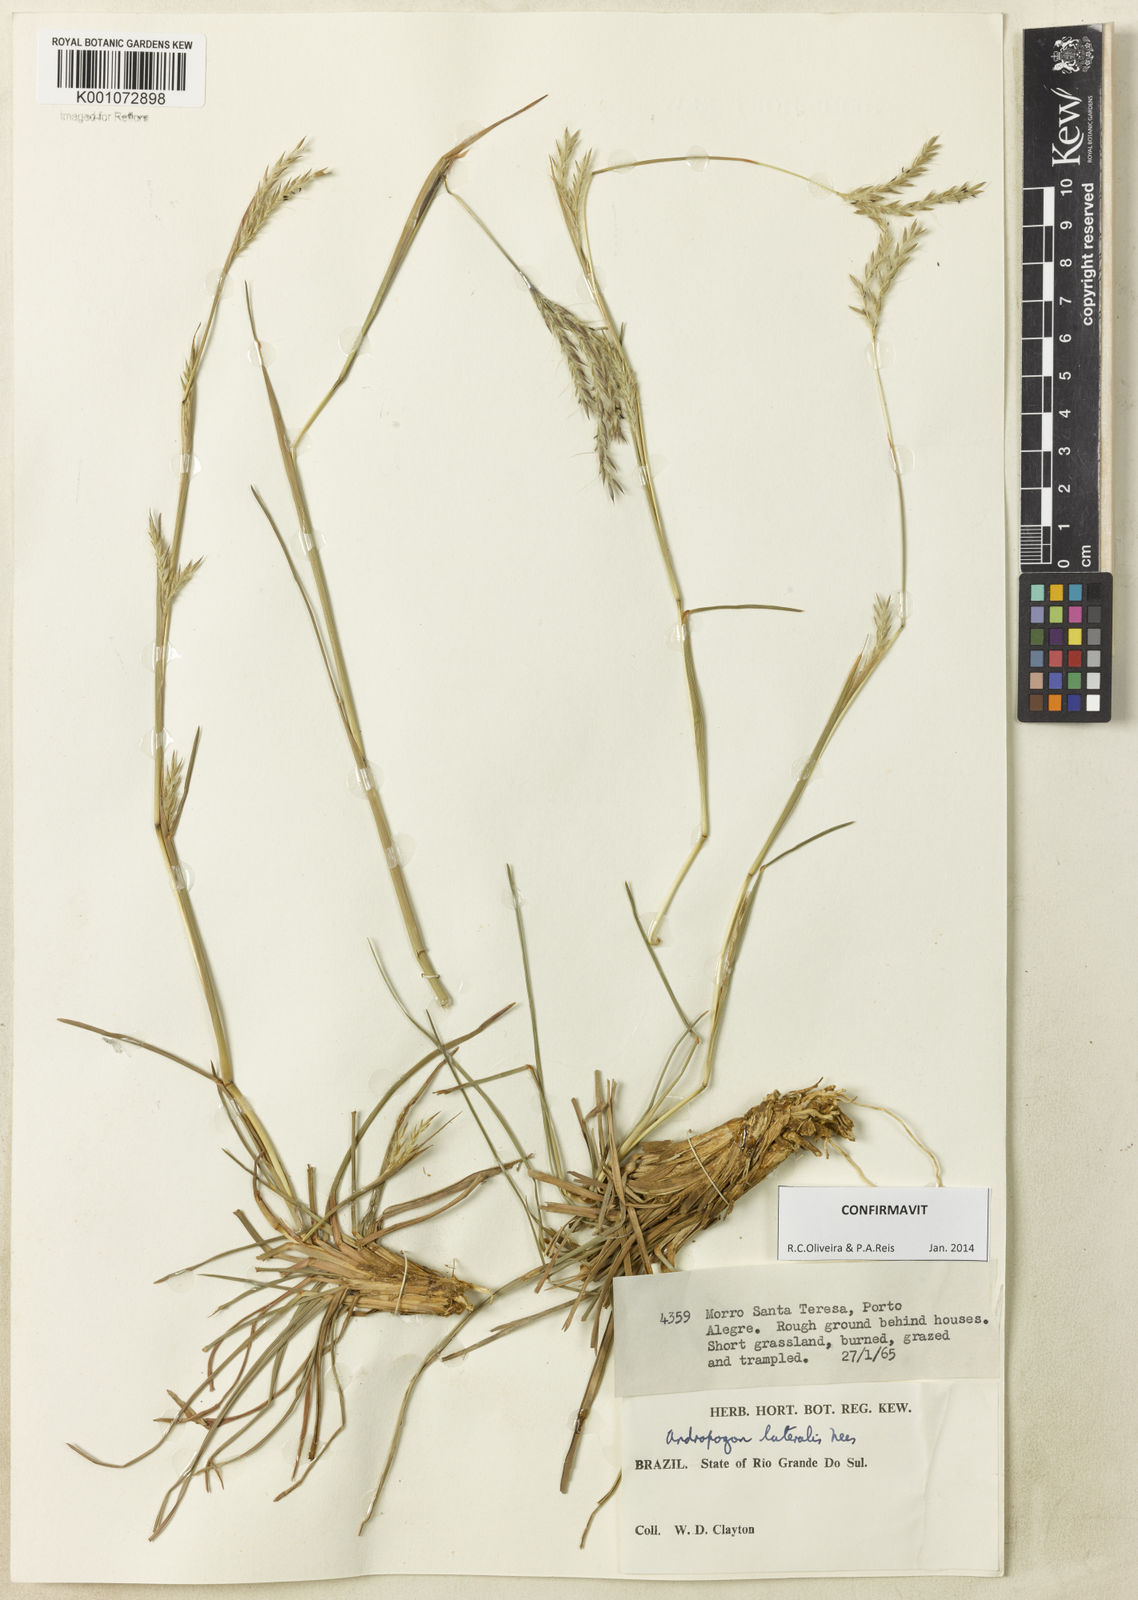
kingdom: Plantae
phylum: Tracheophyta
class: Liliopsida
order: Poales
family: Poaceae
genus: Andropogon
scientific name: Andropogon lateralis
